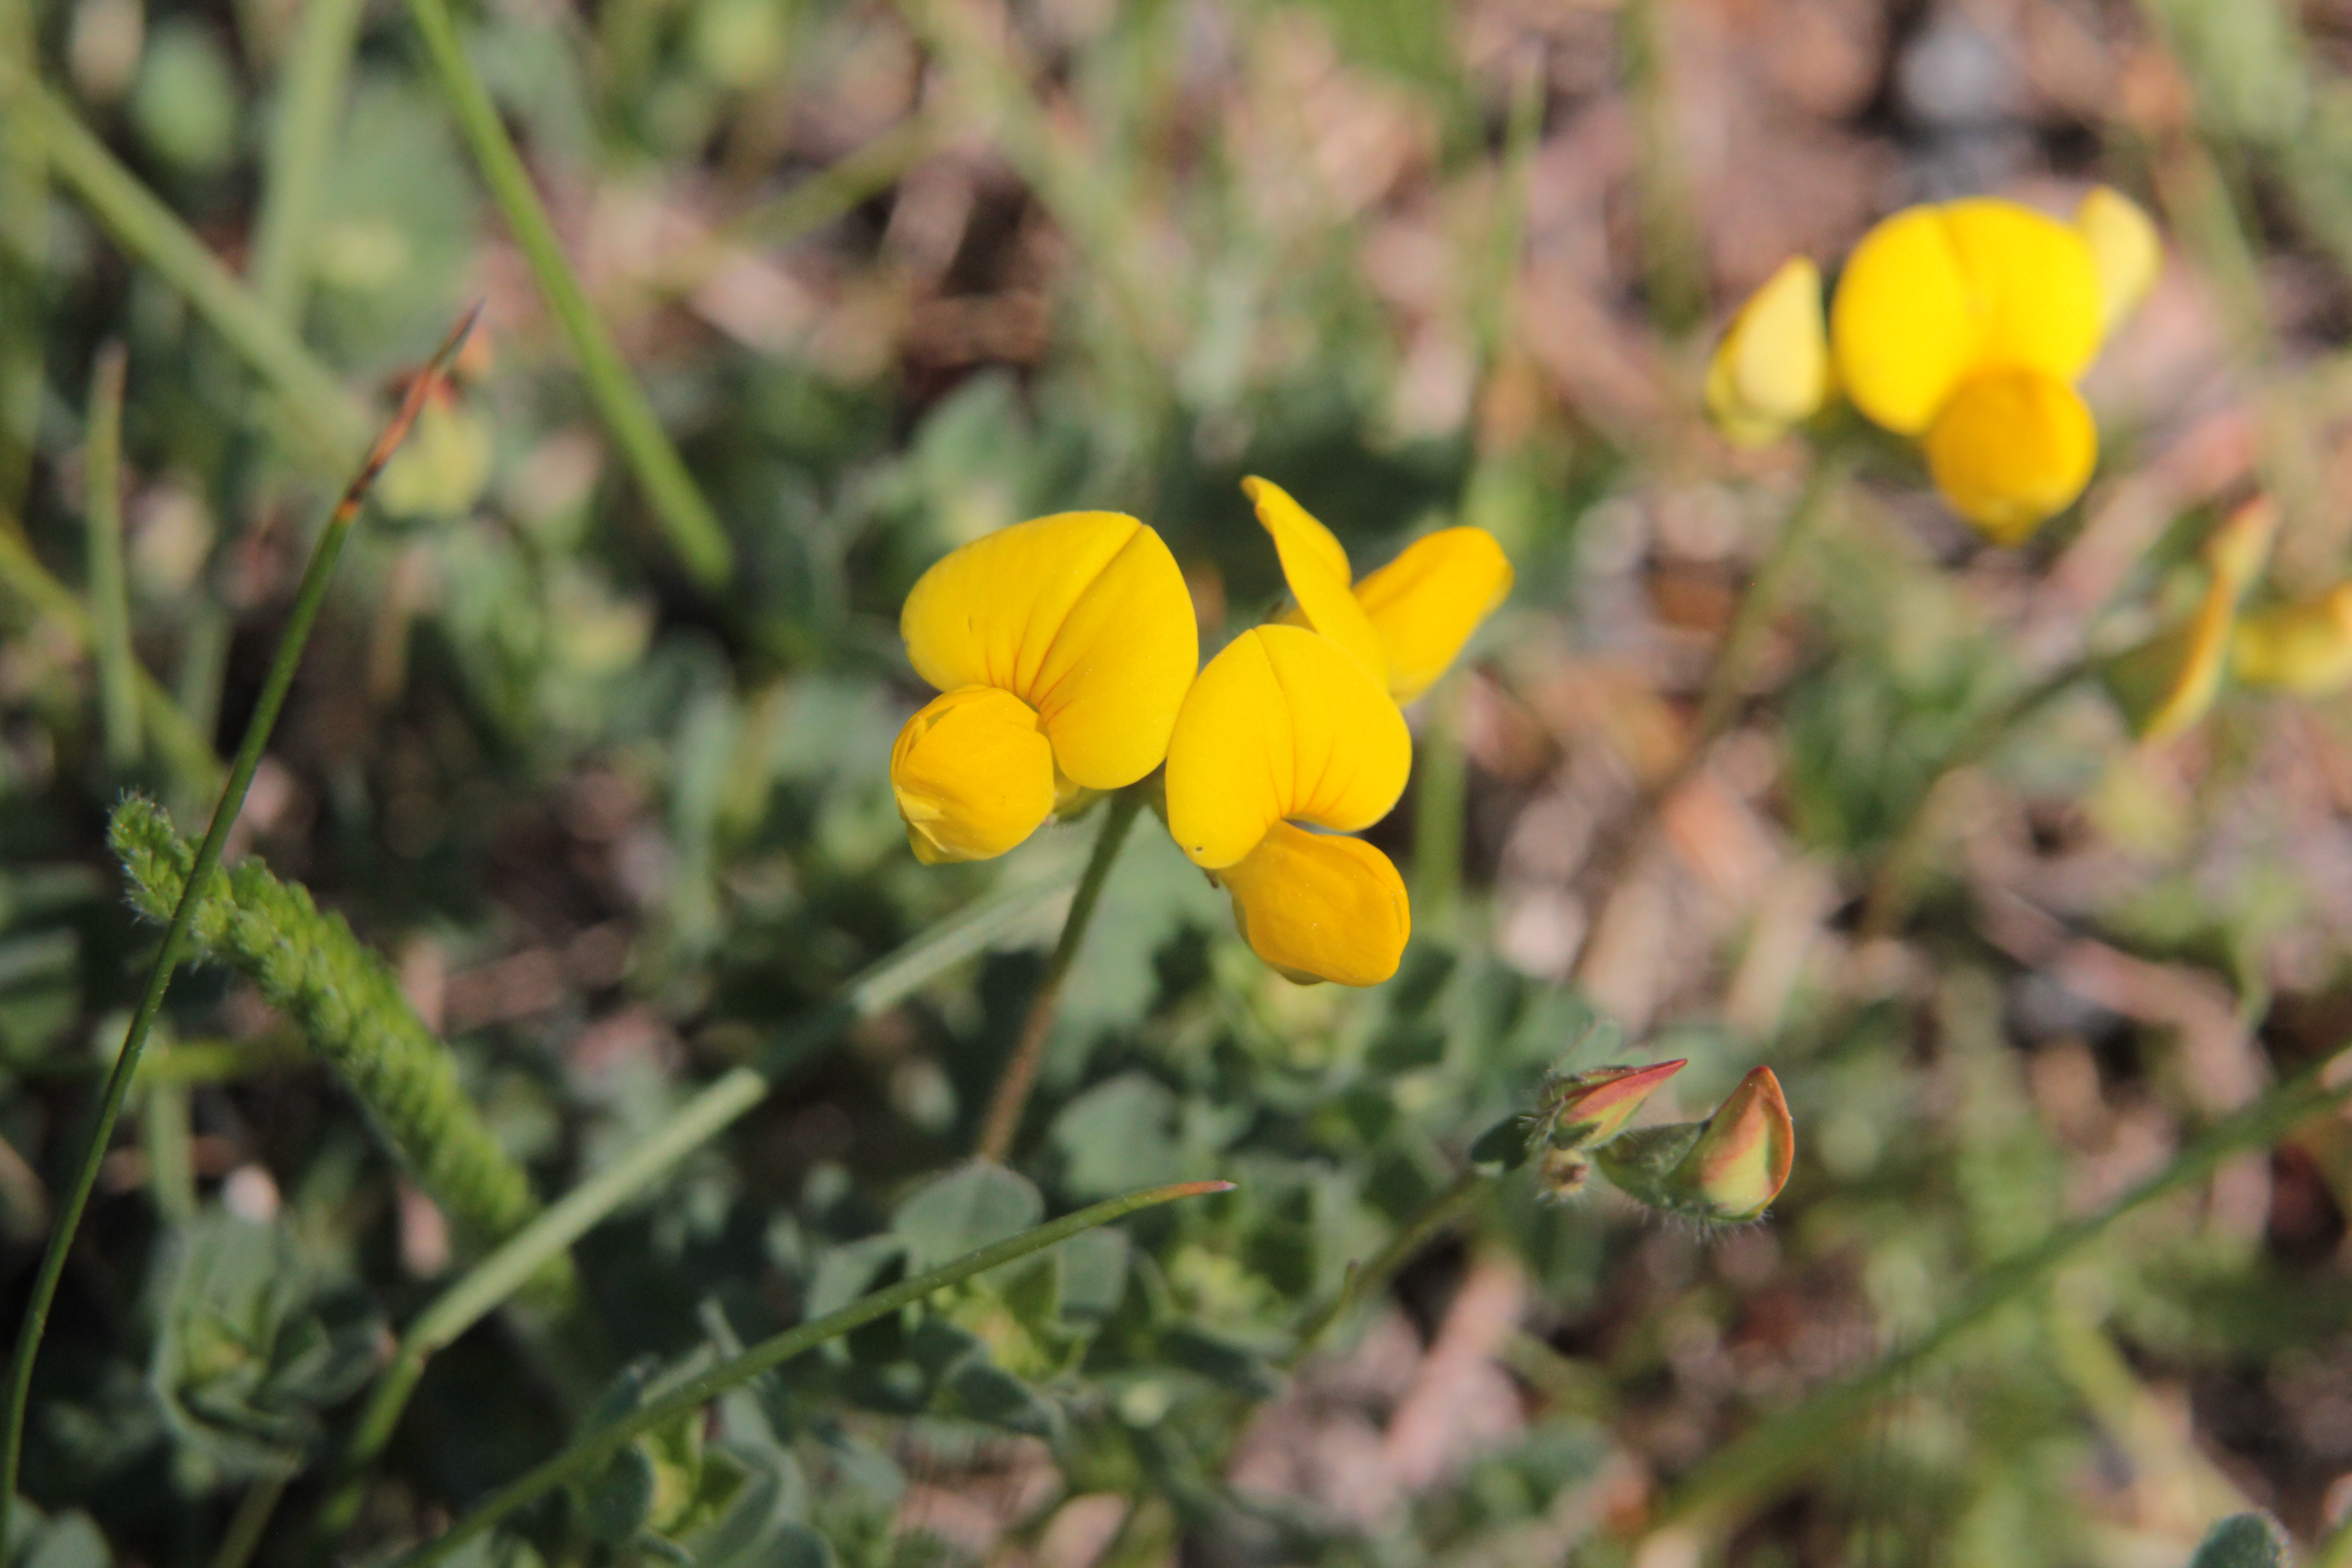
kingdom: Plantae
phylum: Tracheophyta
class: Magnoliopsida
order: Fabales
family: Fabaceae
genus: Lotus
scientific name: Lotus corniculatus
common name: Common bird's-foot-trefoil
